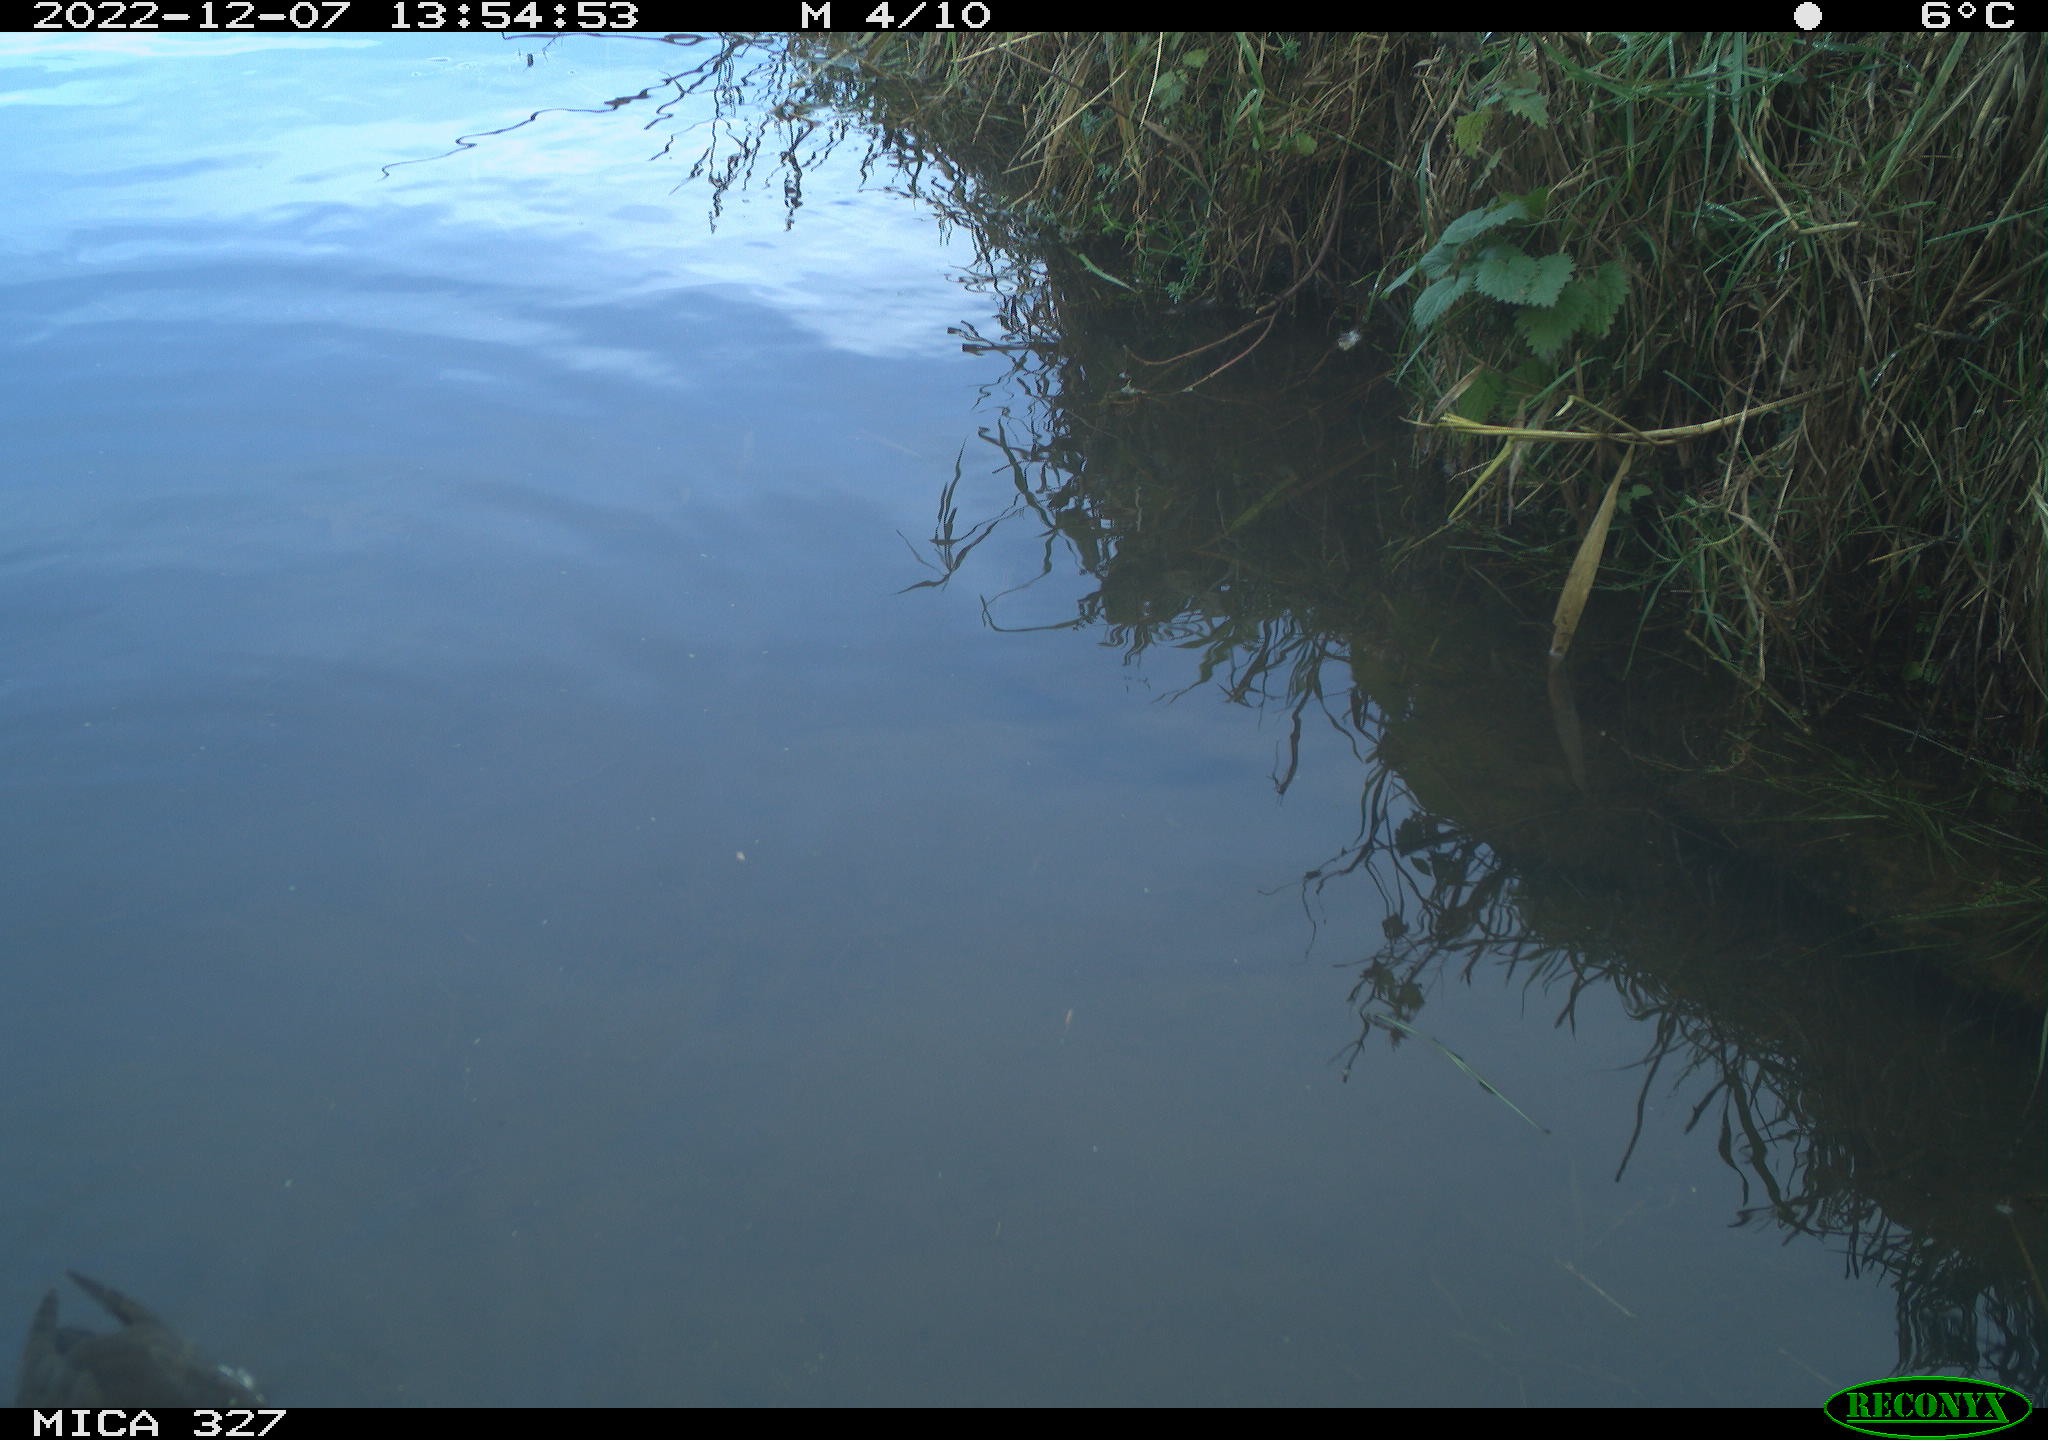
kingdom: Animalia
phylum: Chordata
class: Aves
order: Gruiformes
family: Rallidae
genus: Gallinula
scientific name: Gallinula chloropus
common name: Common moorhen
